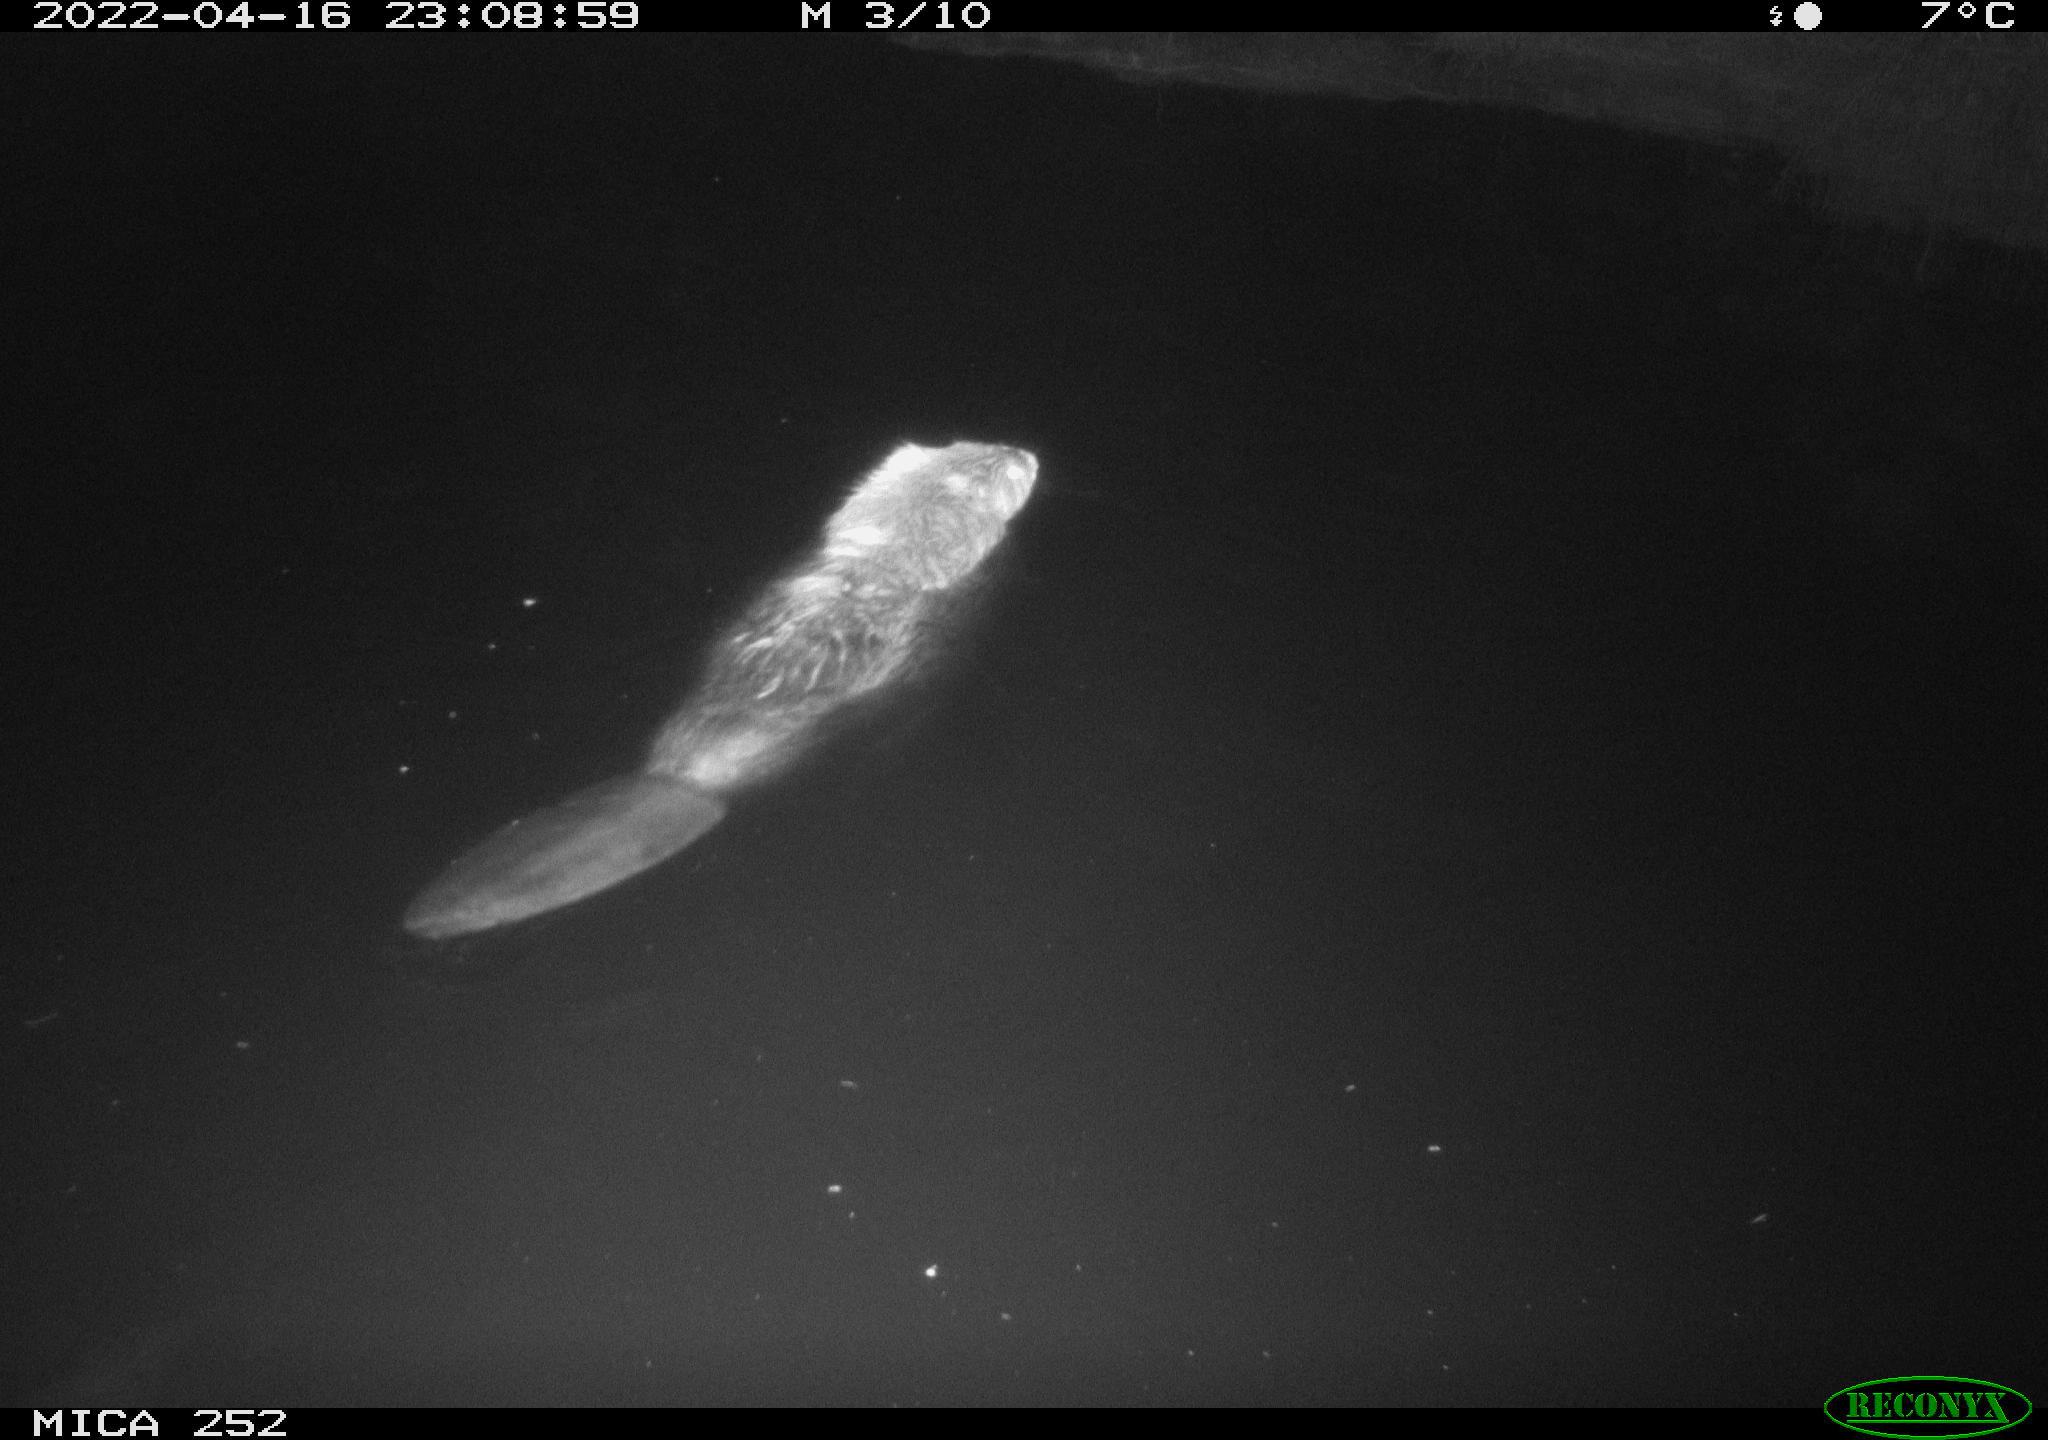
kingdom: Animalia
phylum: Chordata
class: Mammalia
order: Rodentia
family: Castoridae
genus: Castor
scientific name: Castor fiber
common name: Eurasian beaver
